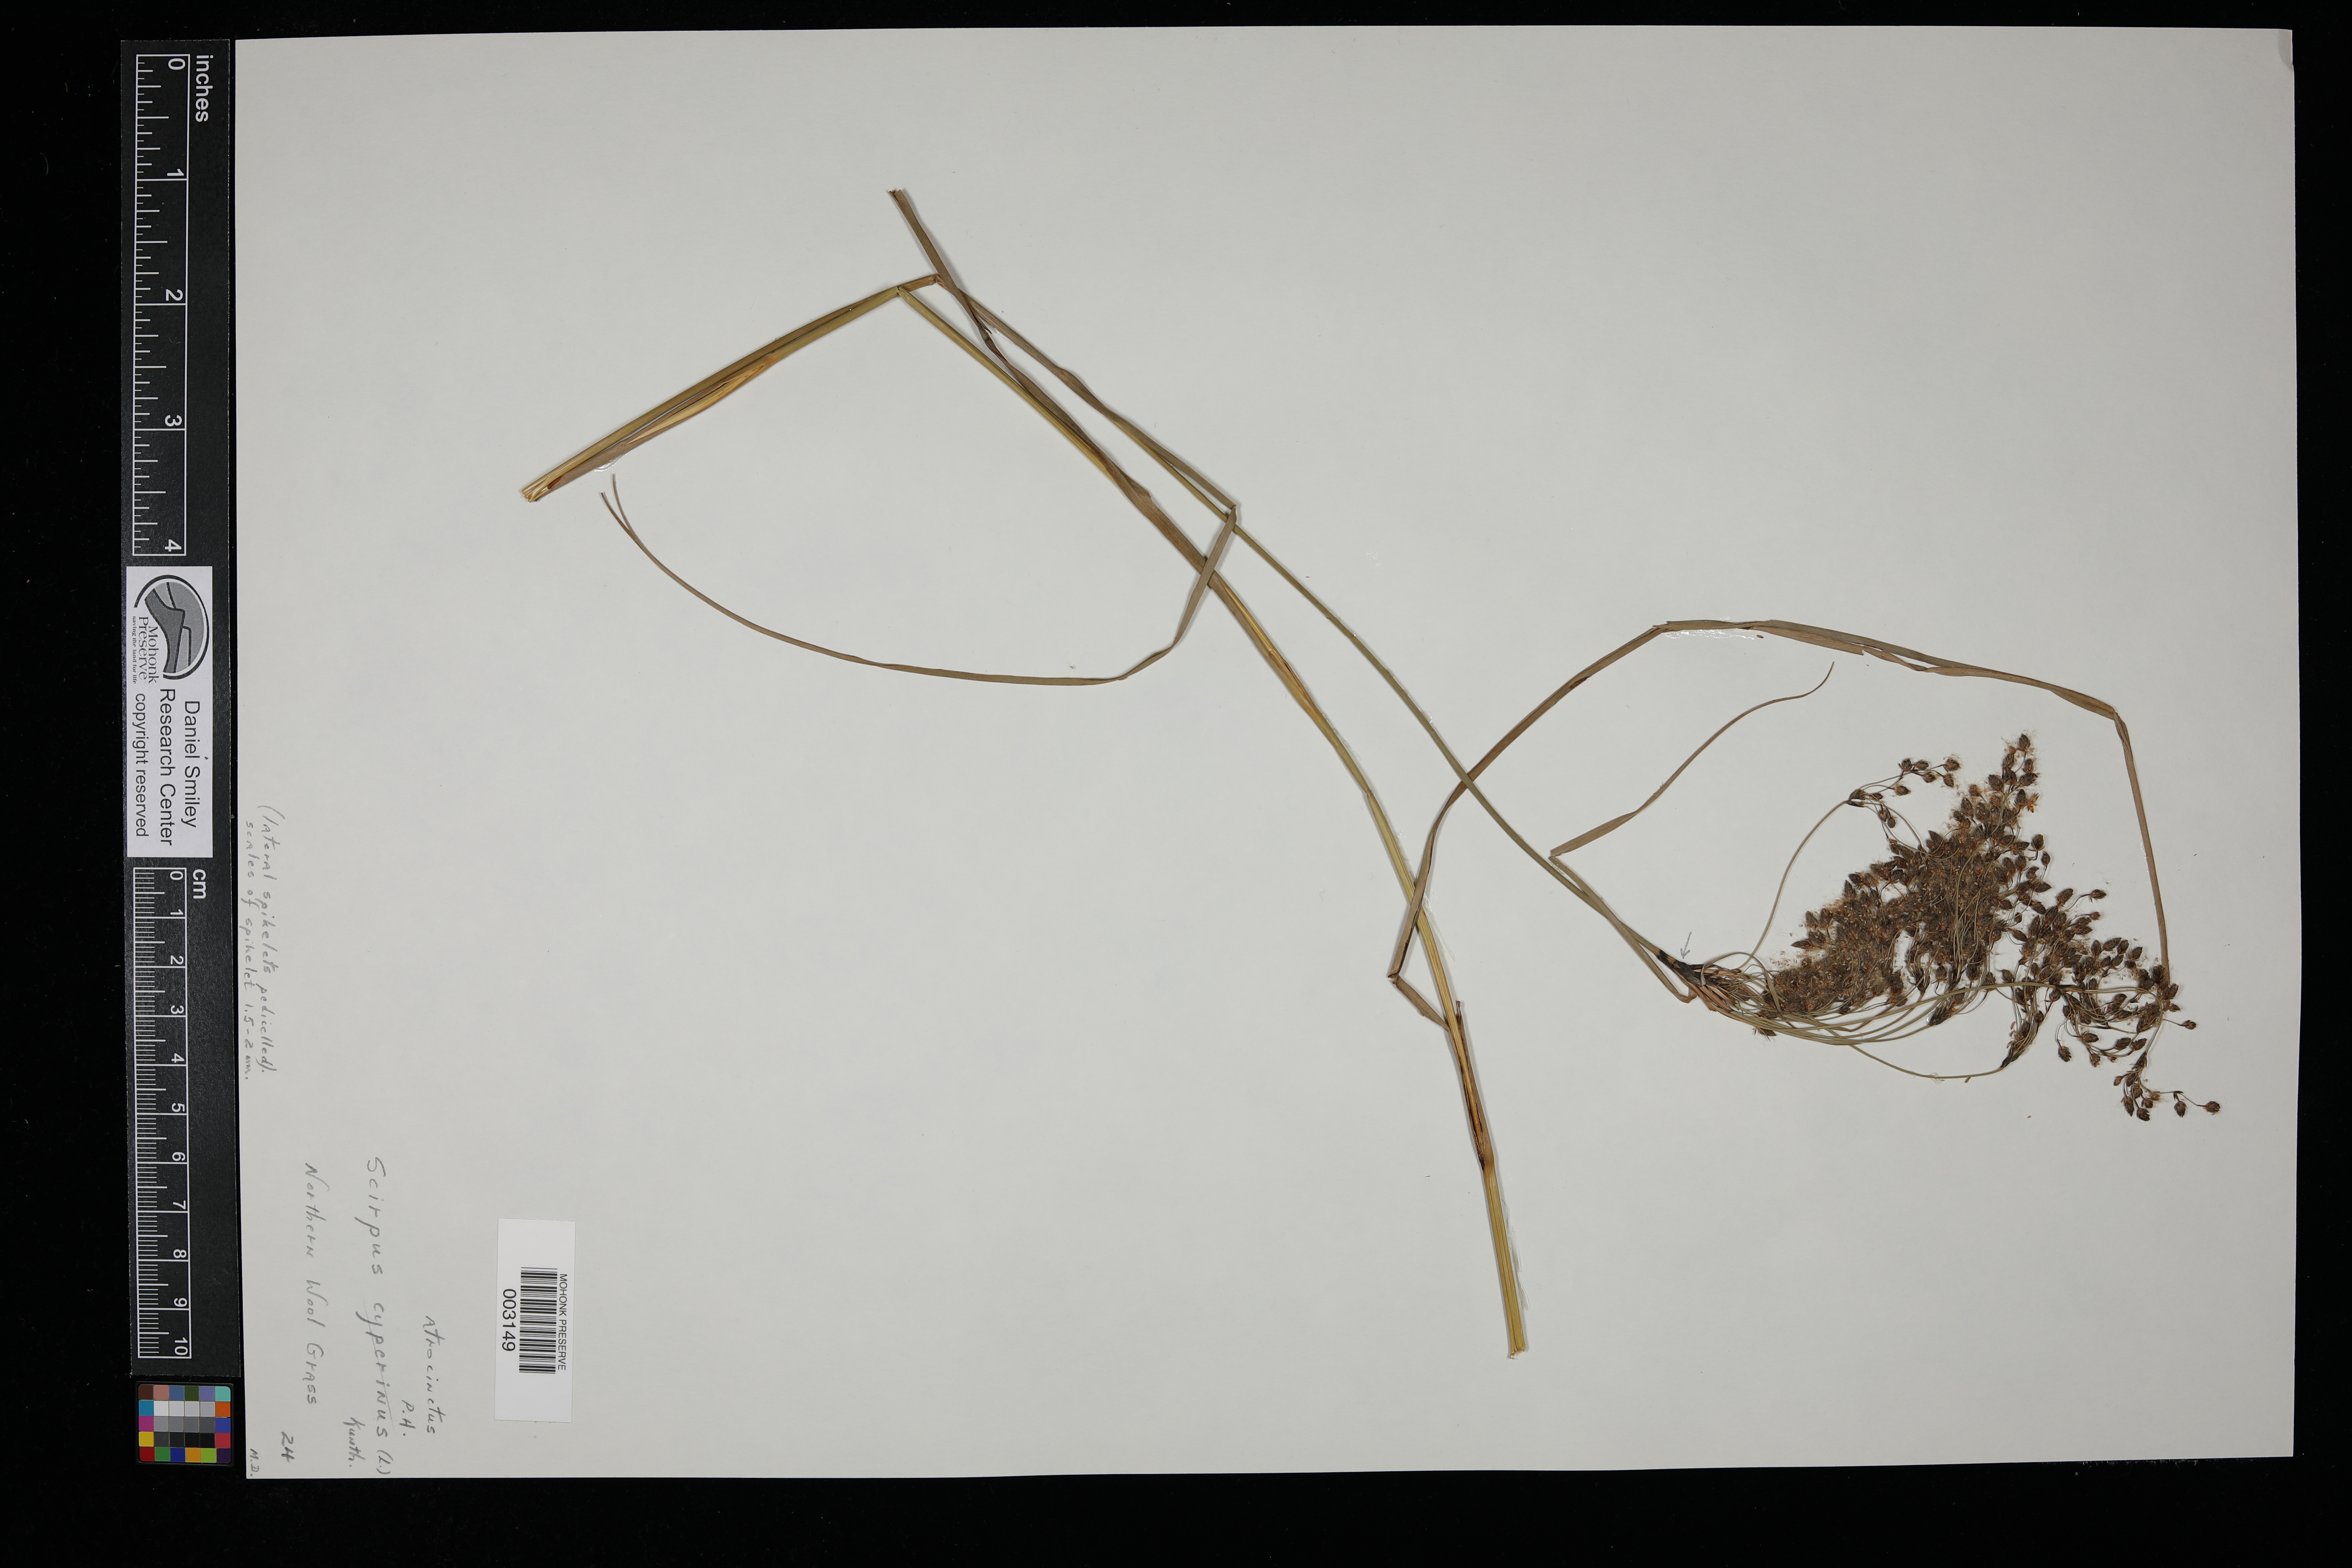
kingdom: Plantae
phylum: Tracheophyta
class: Liliopsida
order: Poales
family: Cyperaceae
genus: Scirpus
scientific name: Scirpus atrocinctus
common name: Black-girdled bulrush
